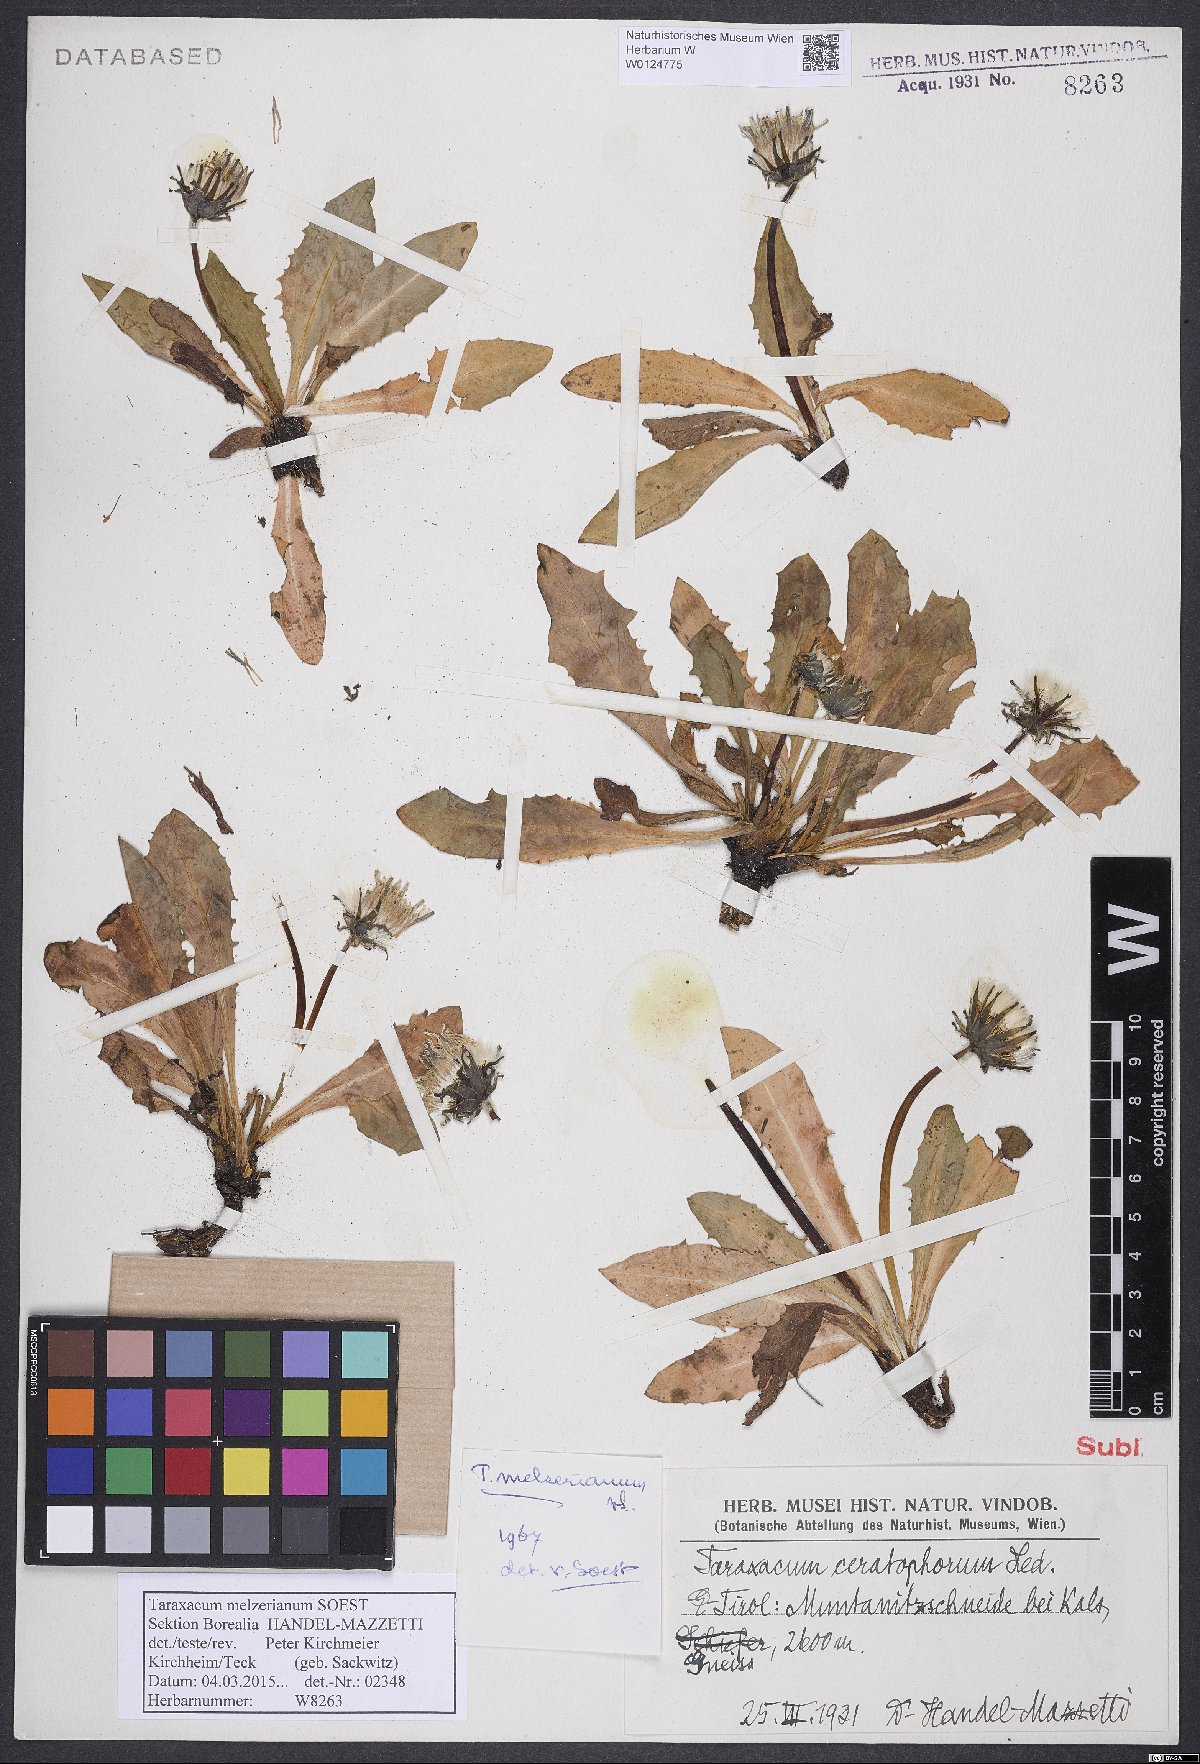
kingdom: Plantae
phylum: Tracheophyta
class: Magnoliopsida
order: Asterales
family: Asteraceae
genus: Taraxacum
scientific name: Taraxacum melzerianum
